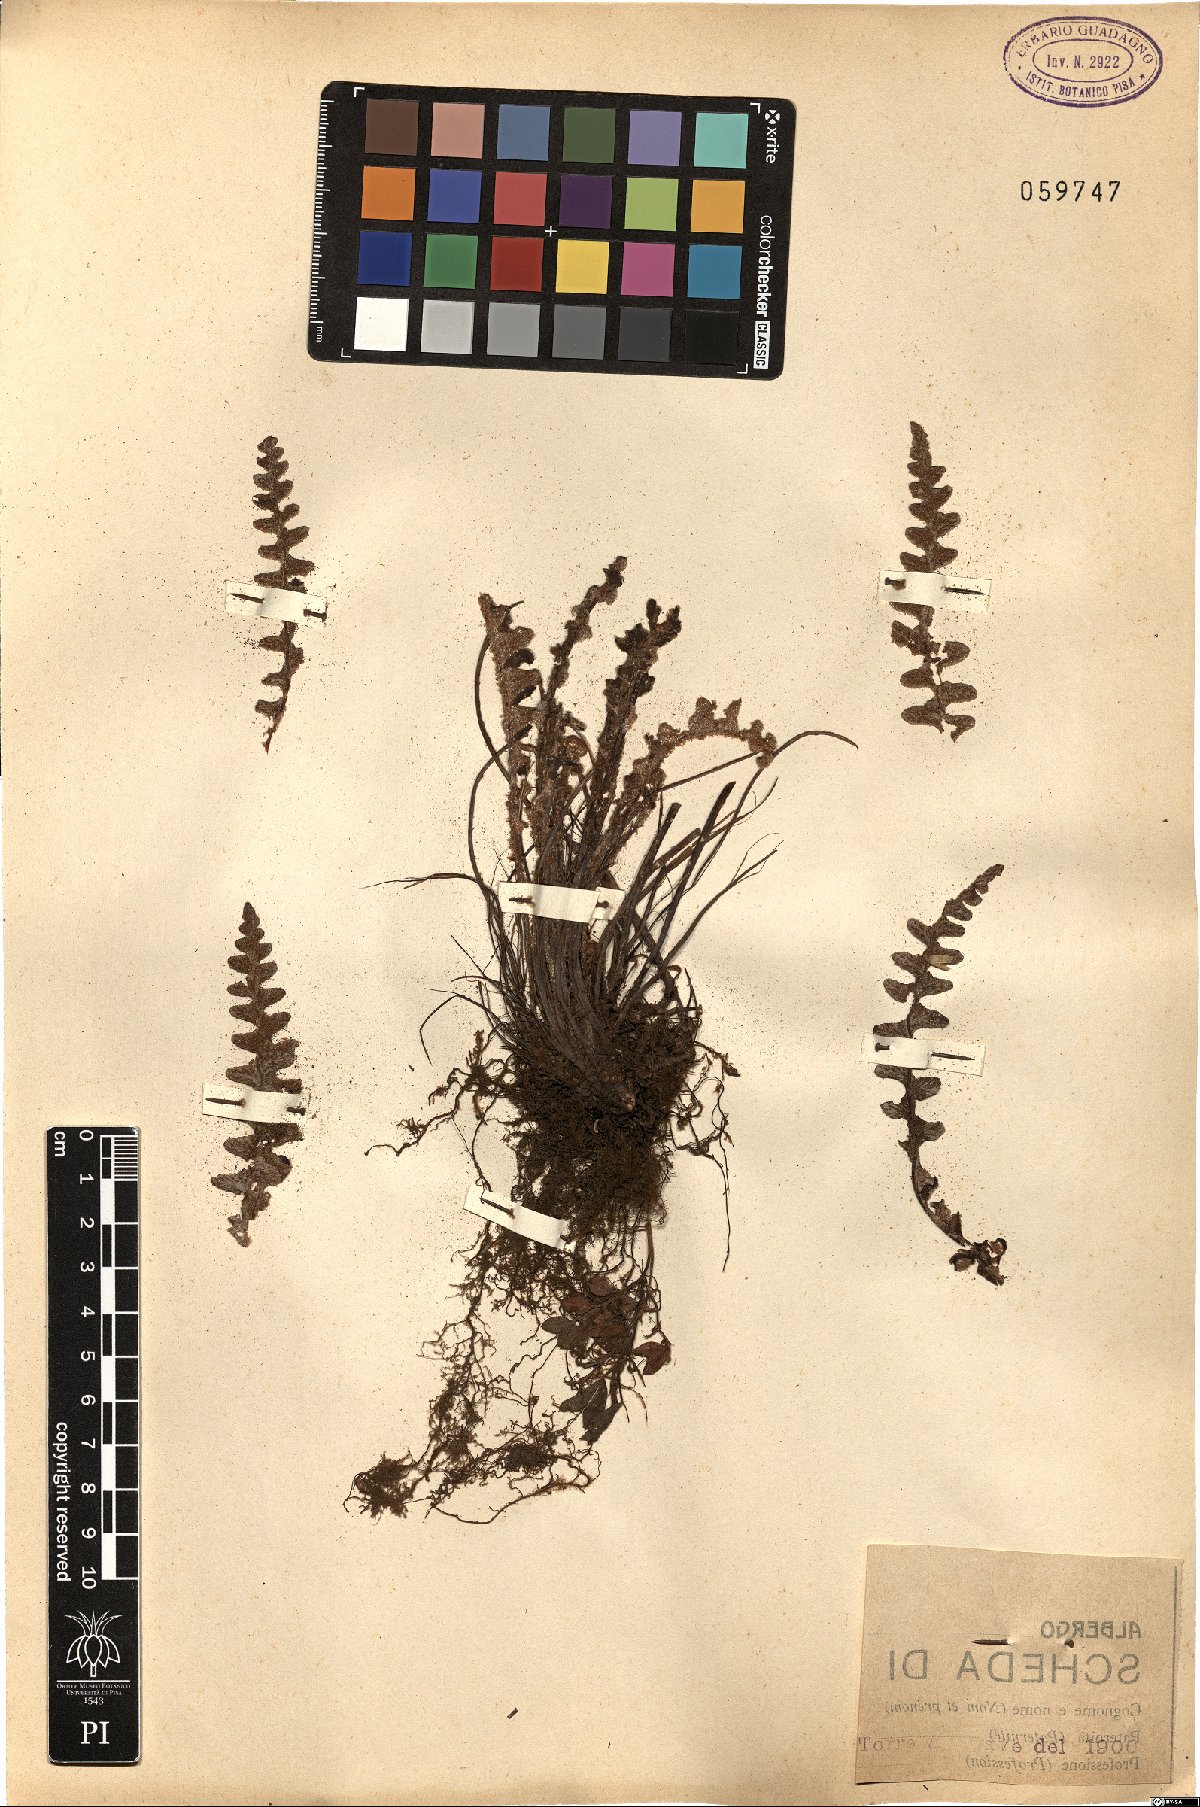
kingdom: Plantae
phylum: Tracheophyta
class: Polypodiopsida
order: Polypodiales
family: Aspleniaceae
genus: Asplenium
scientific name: Asplenium ceterach
